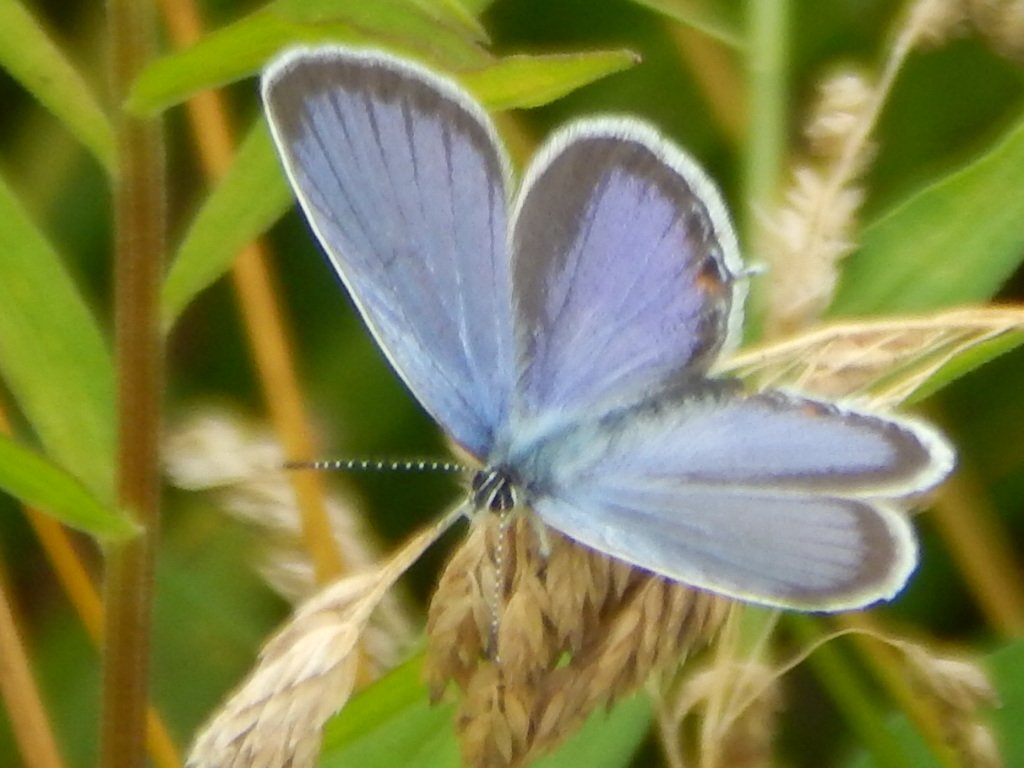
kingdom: Animalia
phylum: Arthropoda
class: Insecta
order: Lepidoptera
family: Lycaenidae
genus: Elkalyce
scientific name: Elkalyce comyntas
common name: Eastern Tailed-Blue
